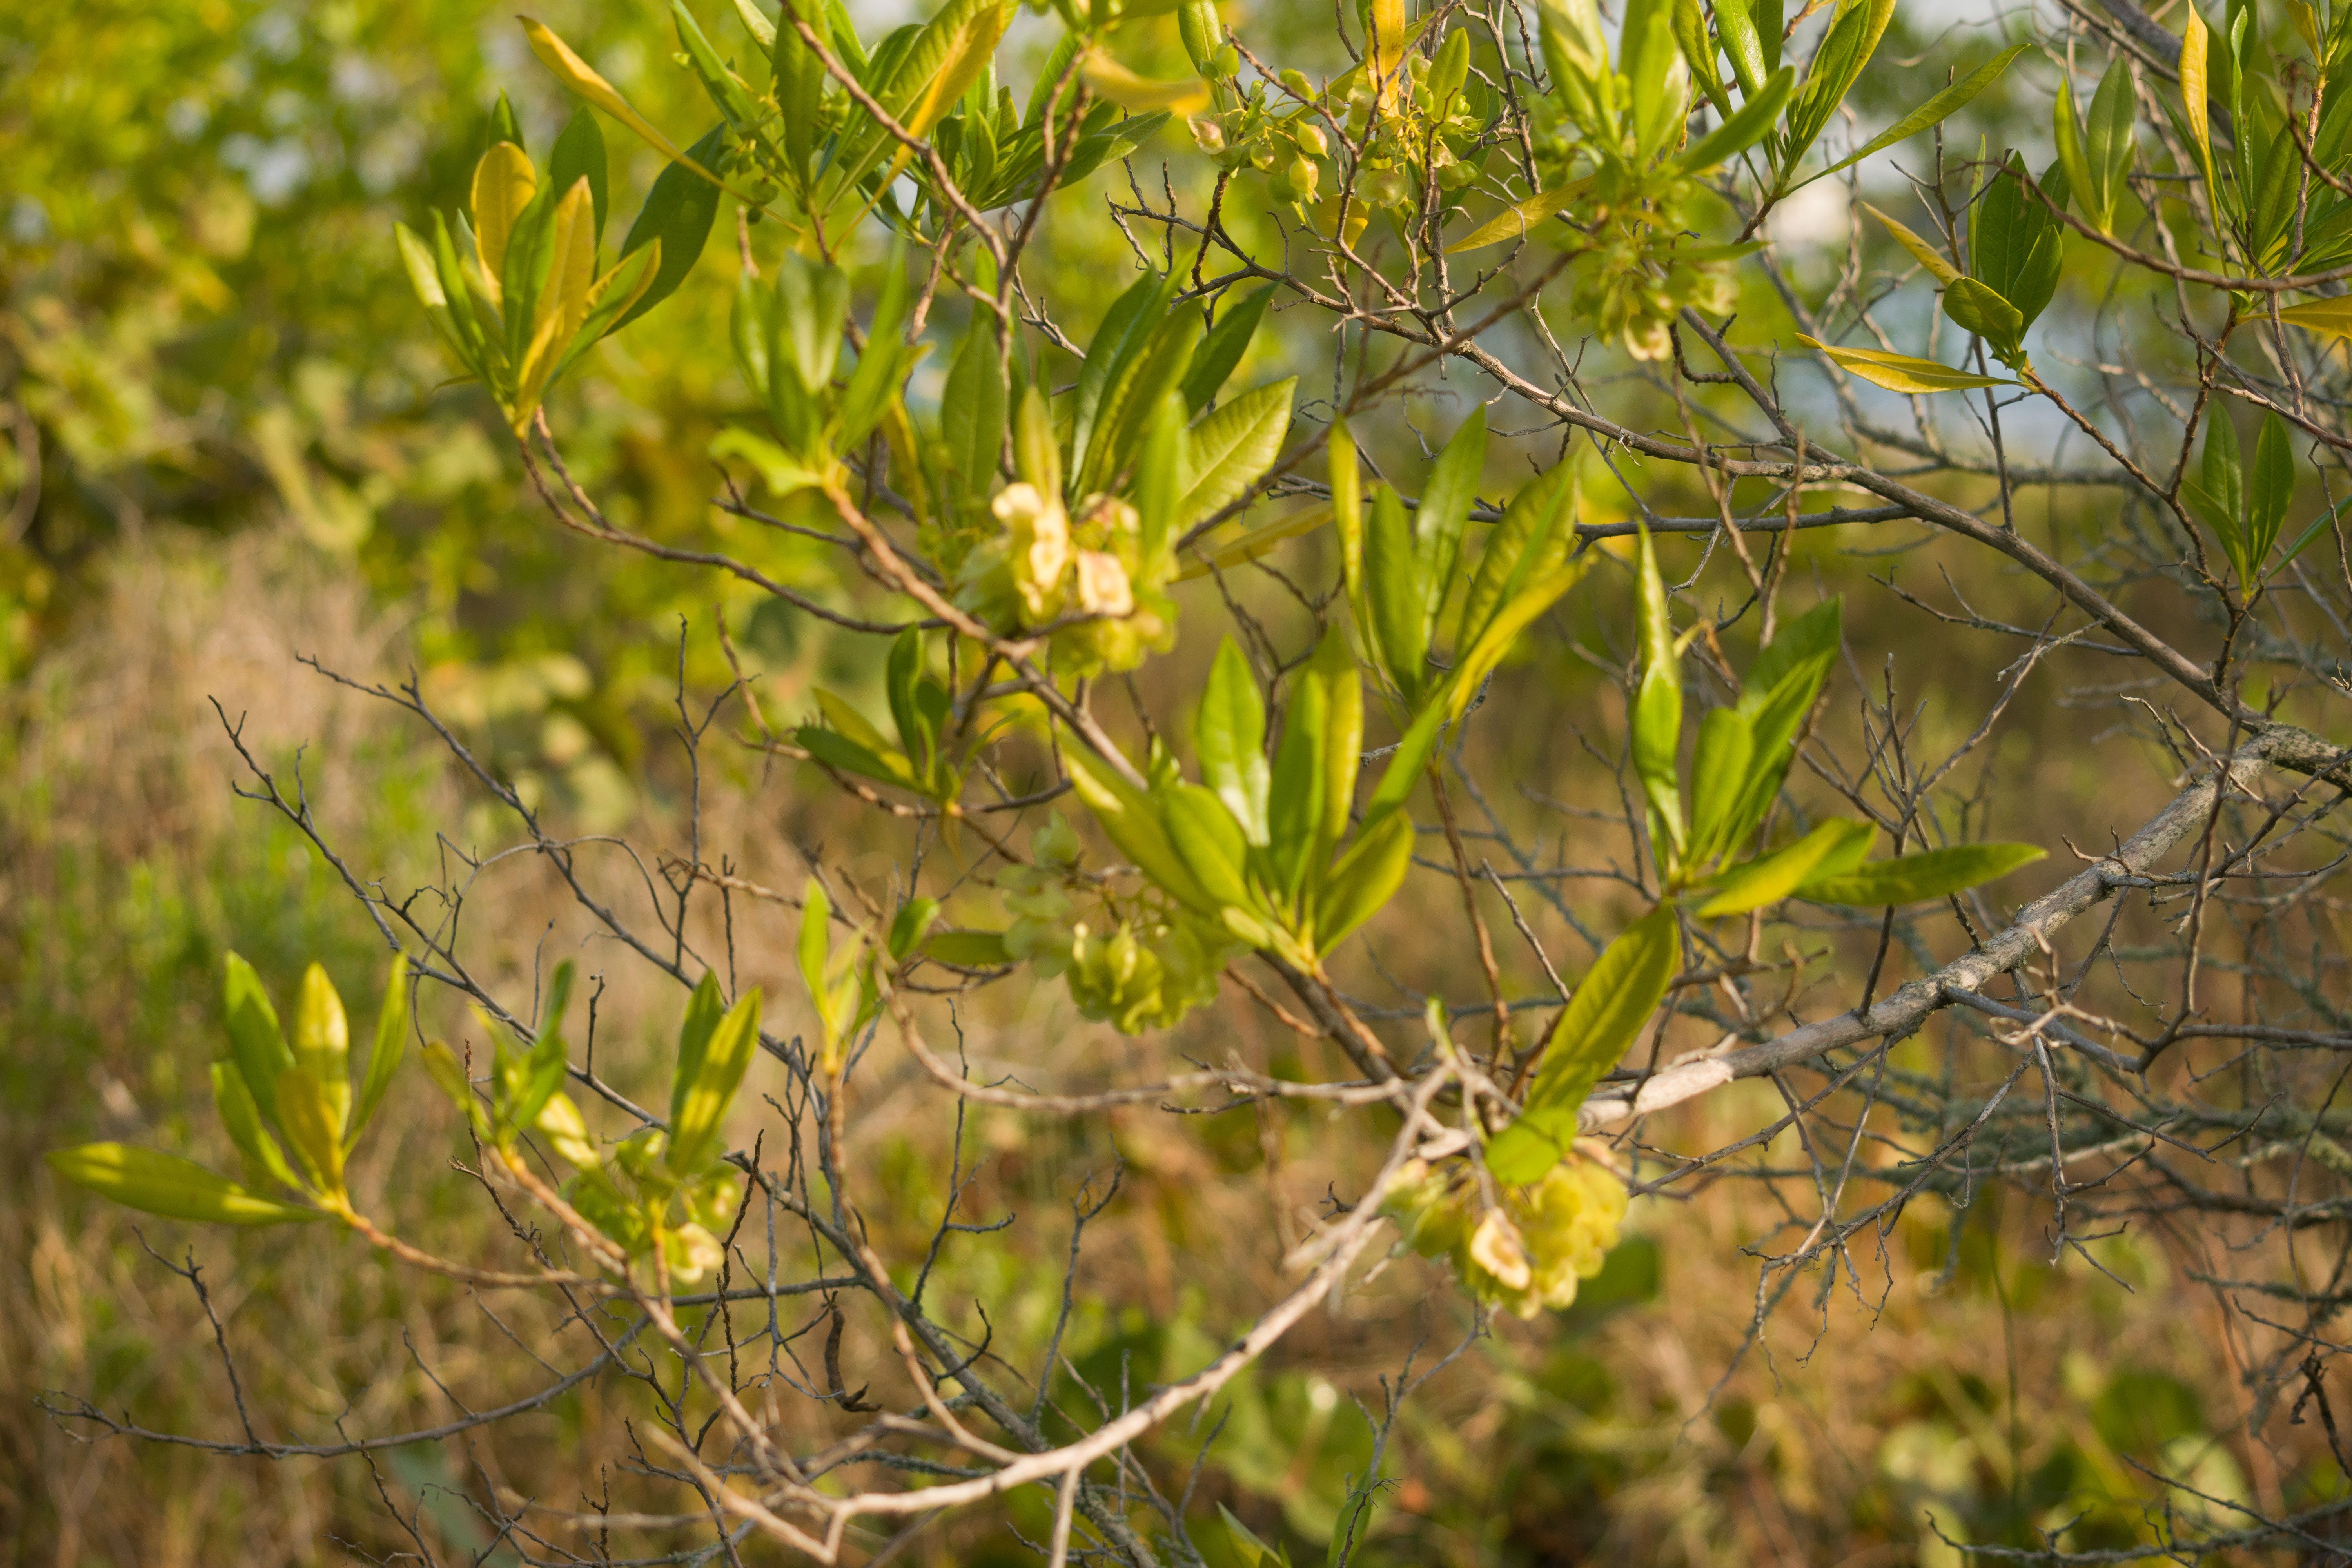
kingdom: Plantae
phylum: Tracheophyta
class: Magnoliopsida
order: Sapindales
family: Sapindaceae
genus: Dodonaea
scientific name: Dodonaea viscosa
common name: Florida Hopbush
